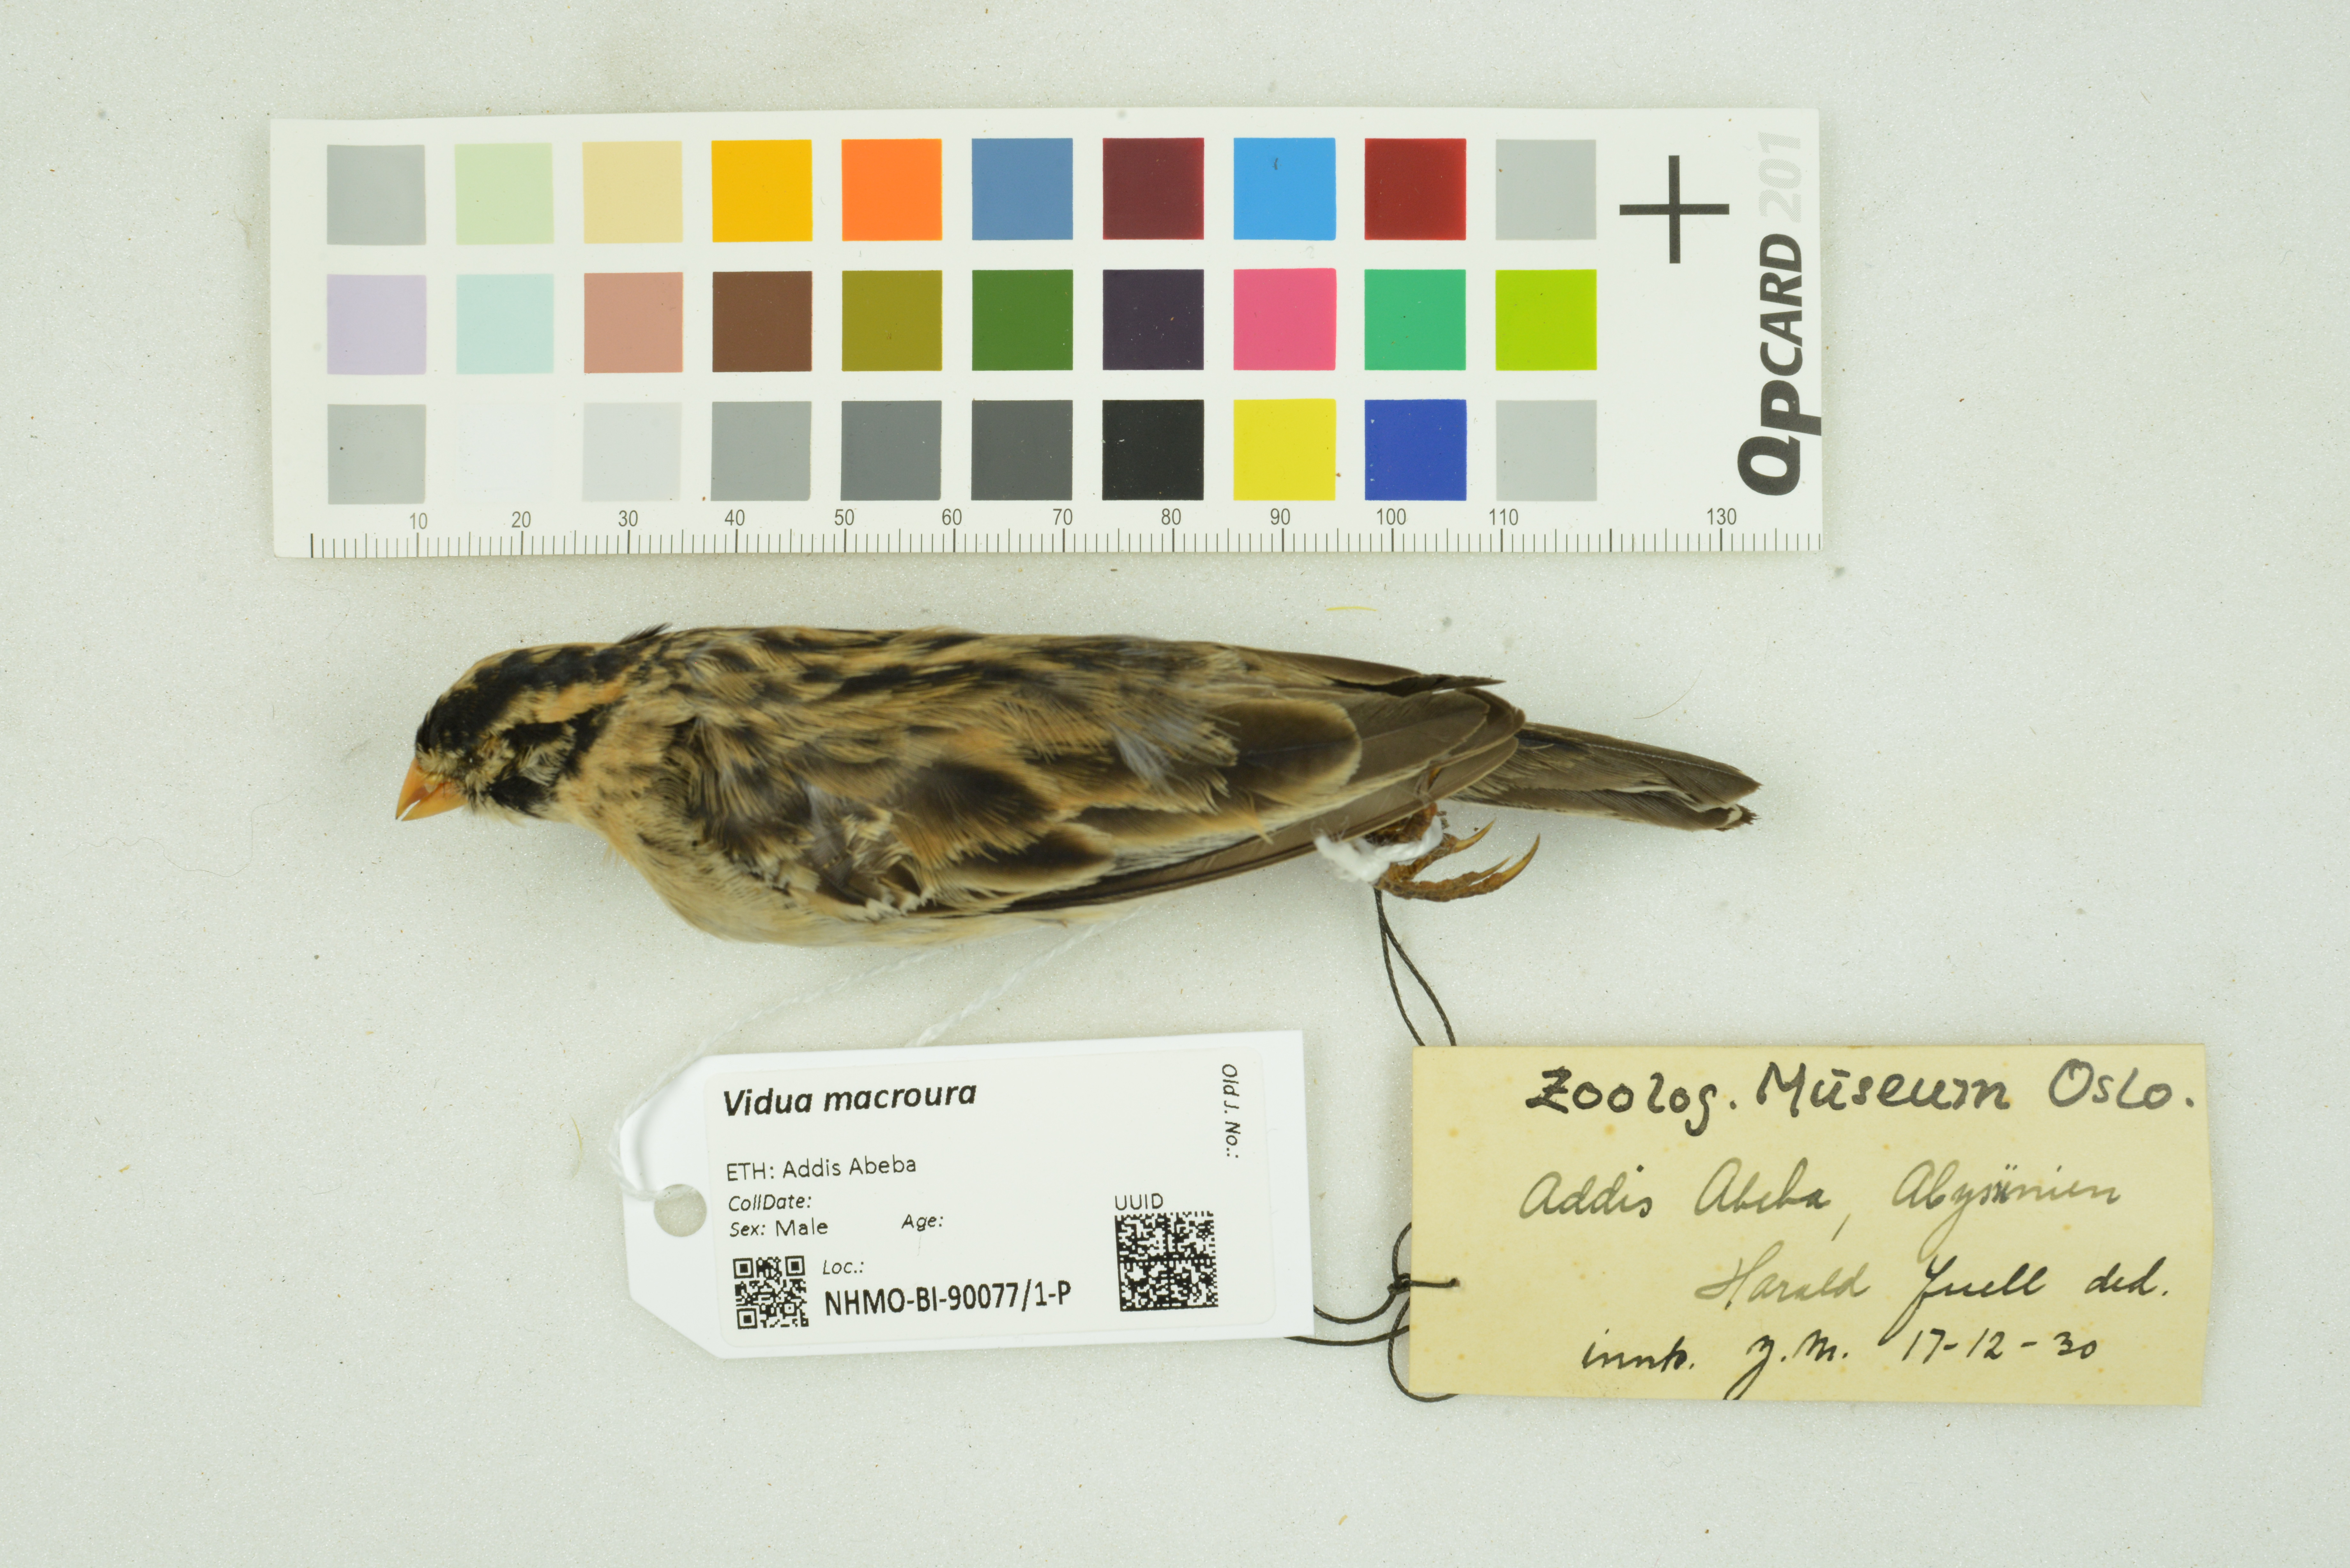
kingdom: Animalia
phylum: Chordata
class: Aves
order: Passeriformes
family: Viduidae
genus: Vidua
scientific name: Vidua macroura
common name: Pin-tailed whydah
